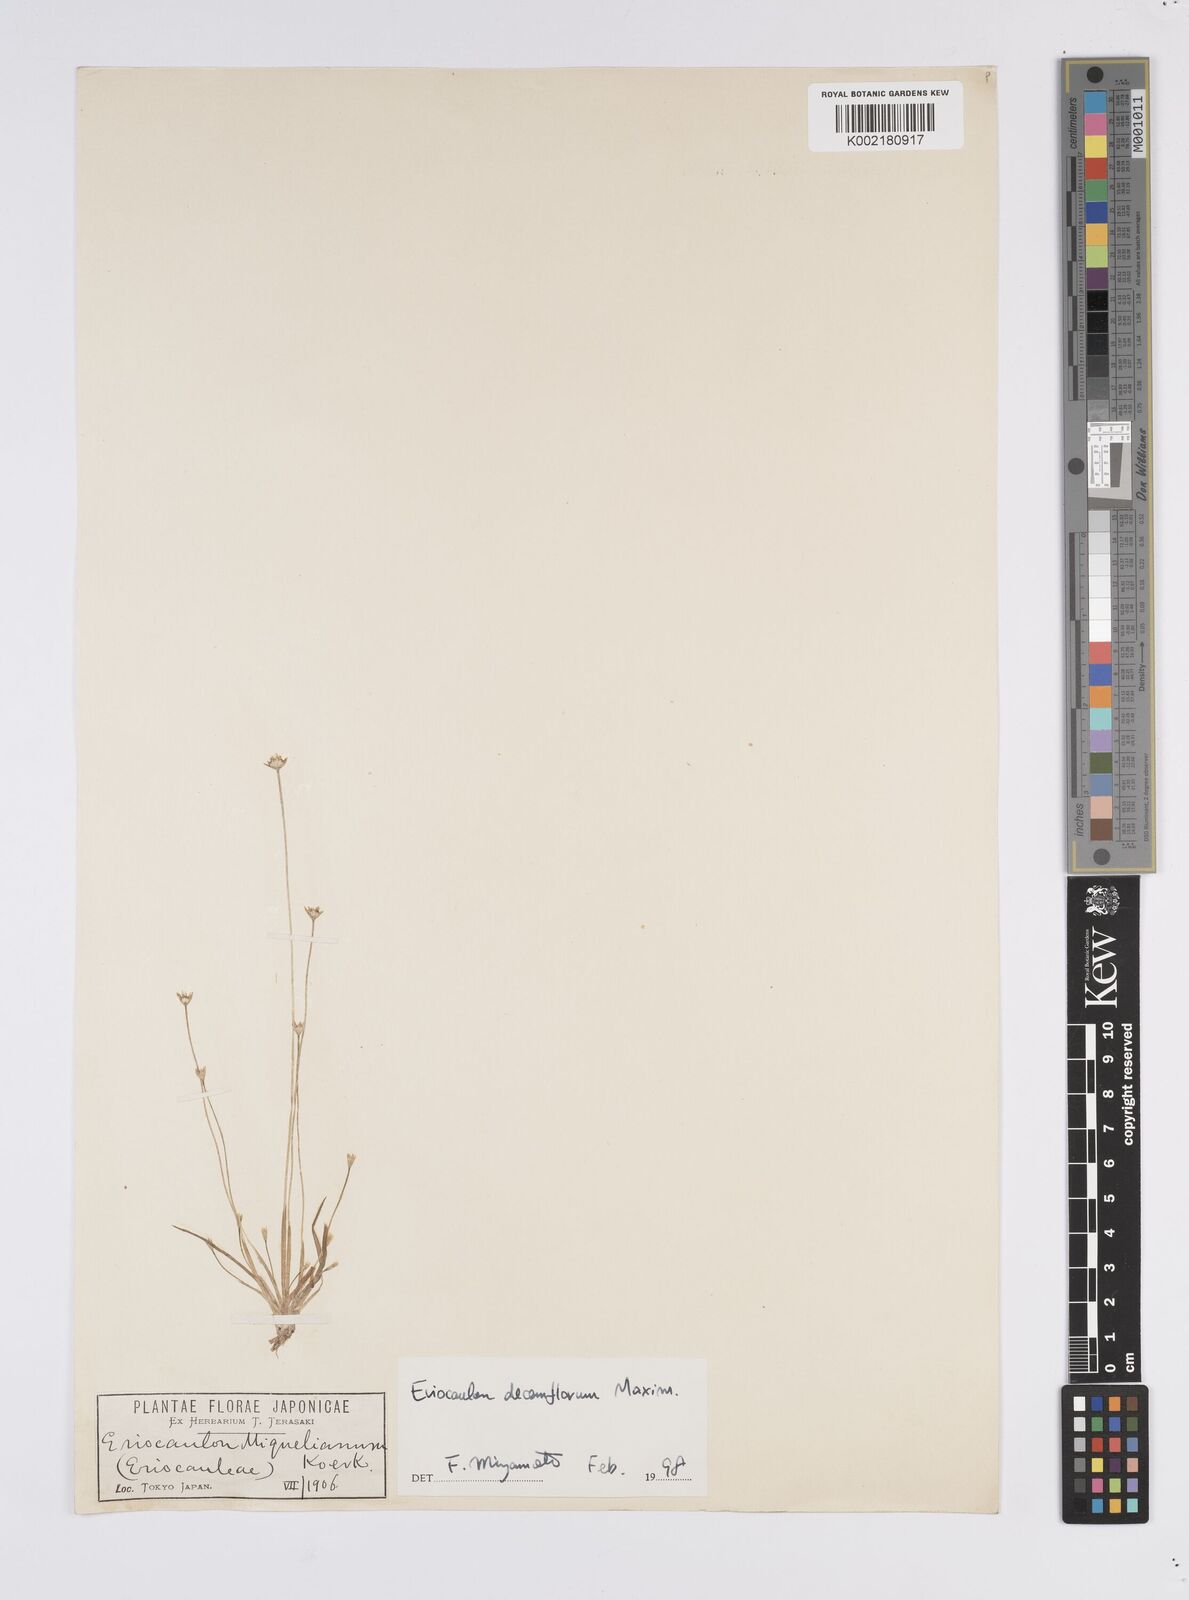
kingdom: Plantae
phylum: Tracheophyta
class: Liliopsida
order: Poales
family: Eriocaulaceae
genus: Eriocaulon
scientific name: Eriocaulon decemflorum
